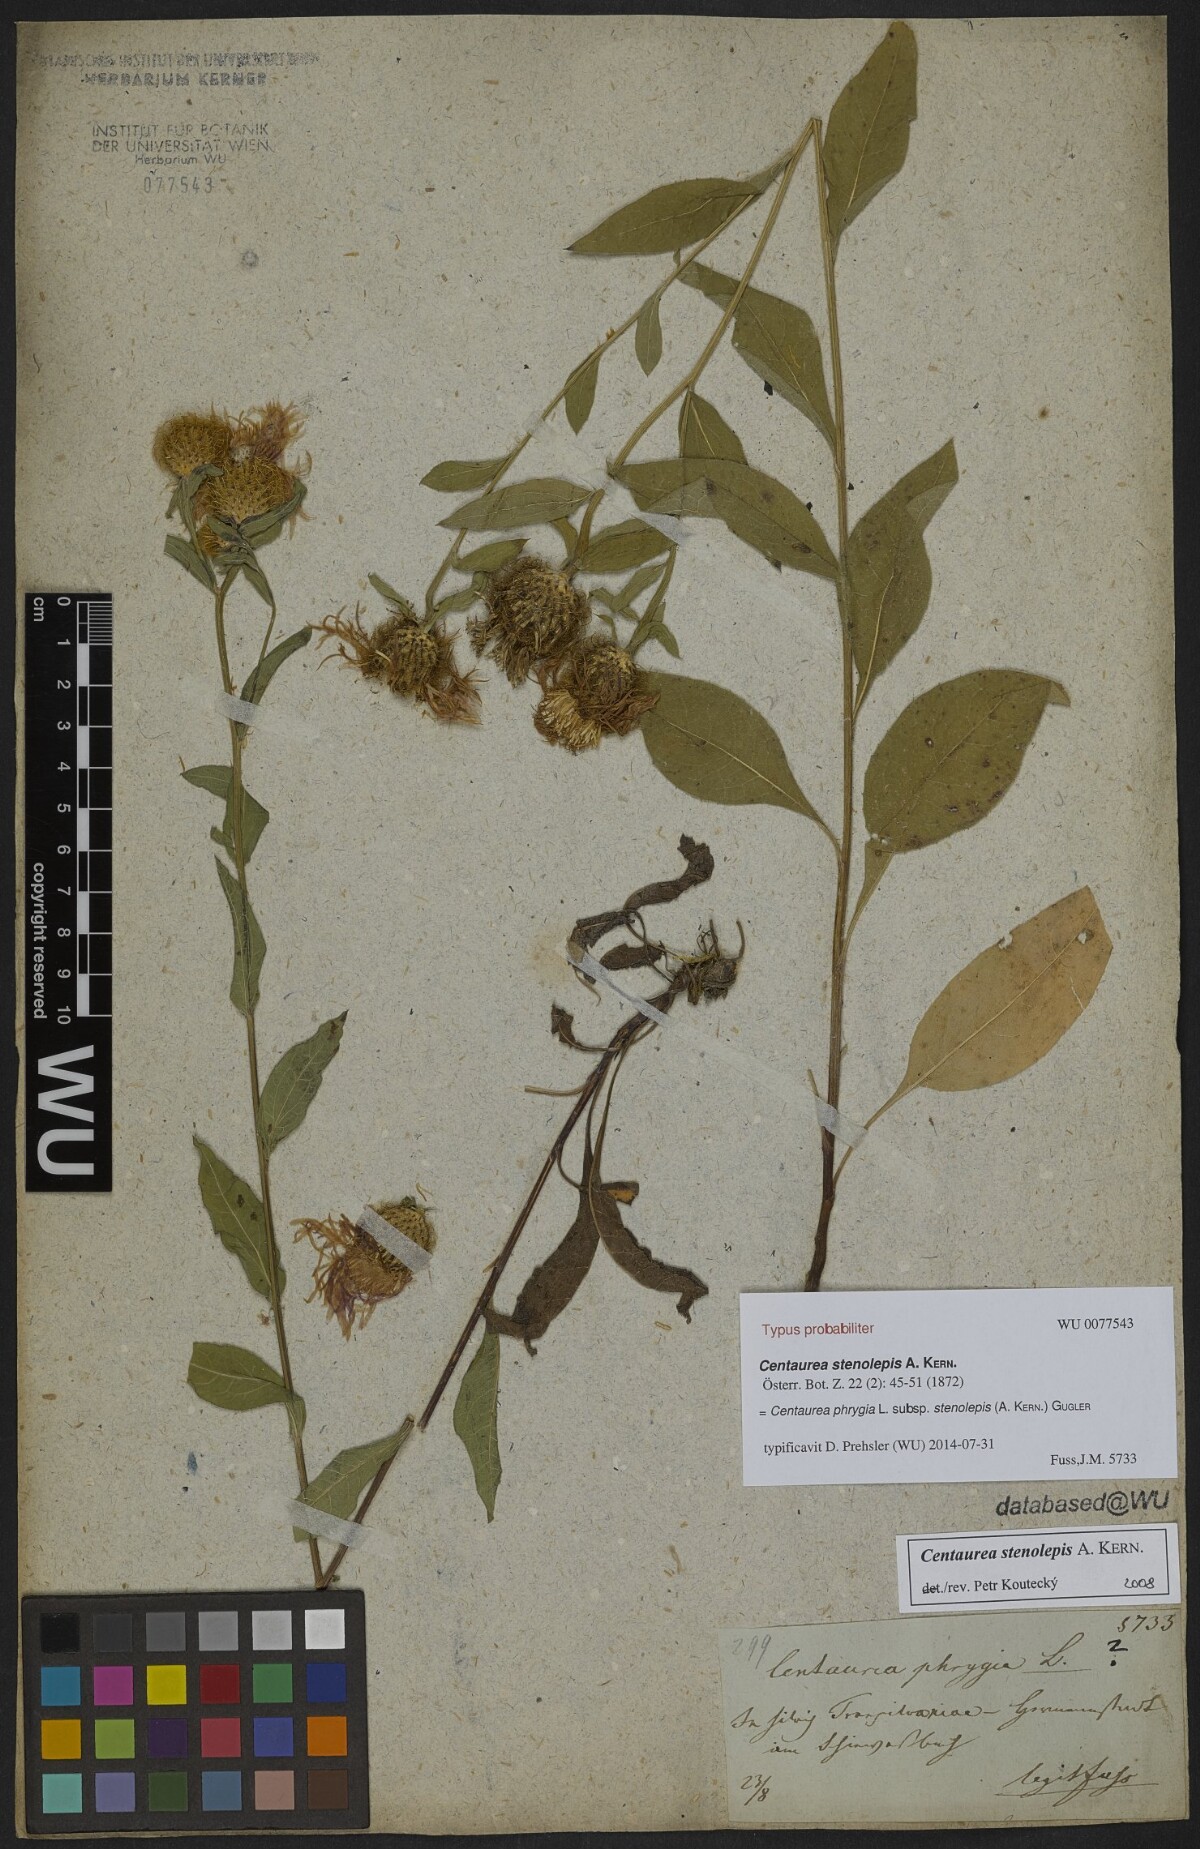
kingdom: Plantae
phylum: Tracheophyta
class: Magnoliopsida
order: Asterales
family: Asteraceae
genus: Centaurea
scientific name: Centaurea stenolepis
